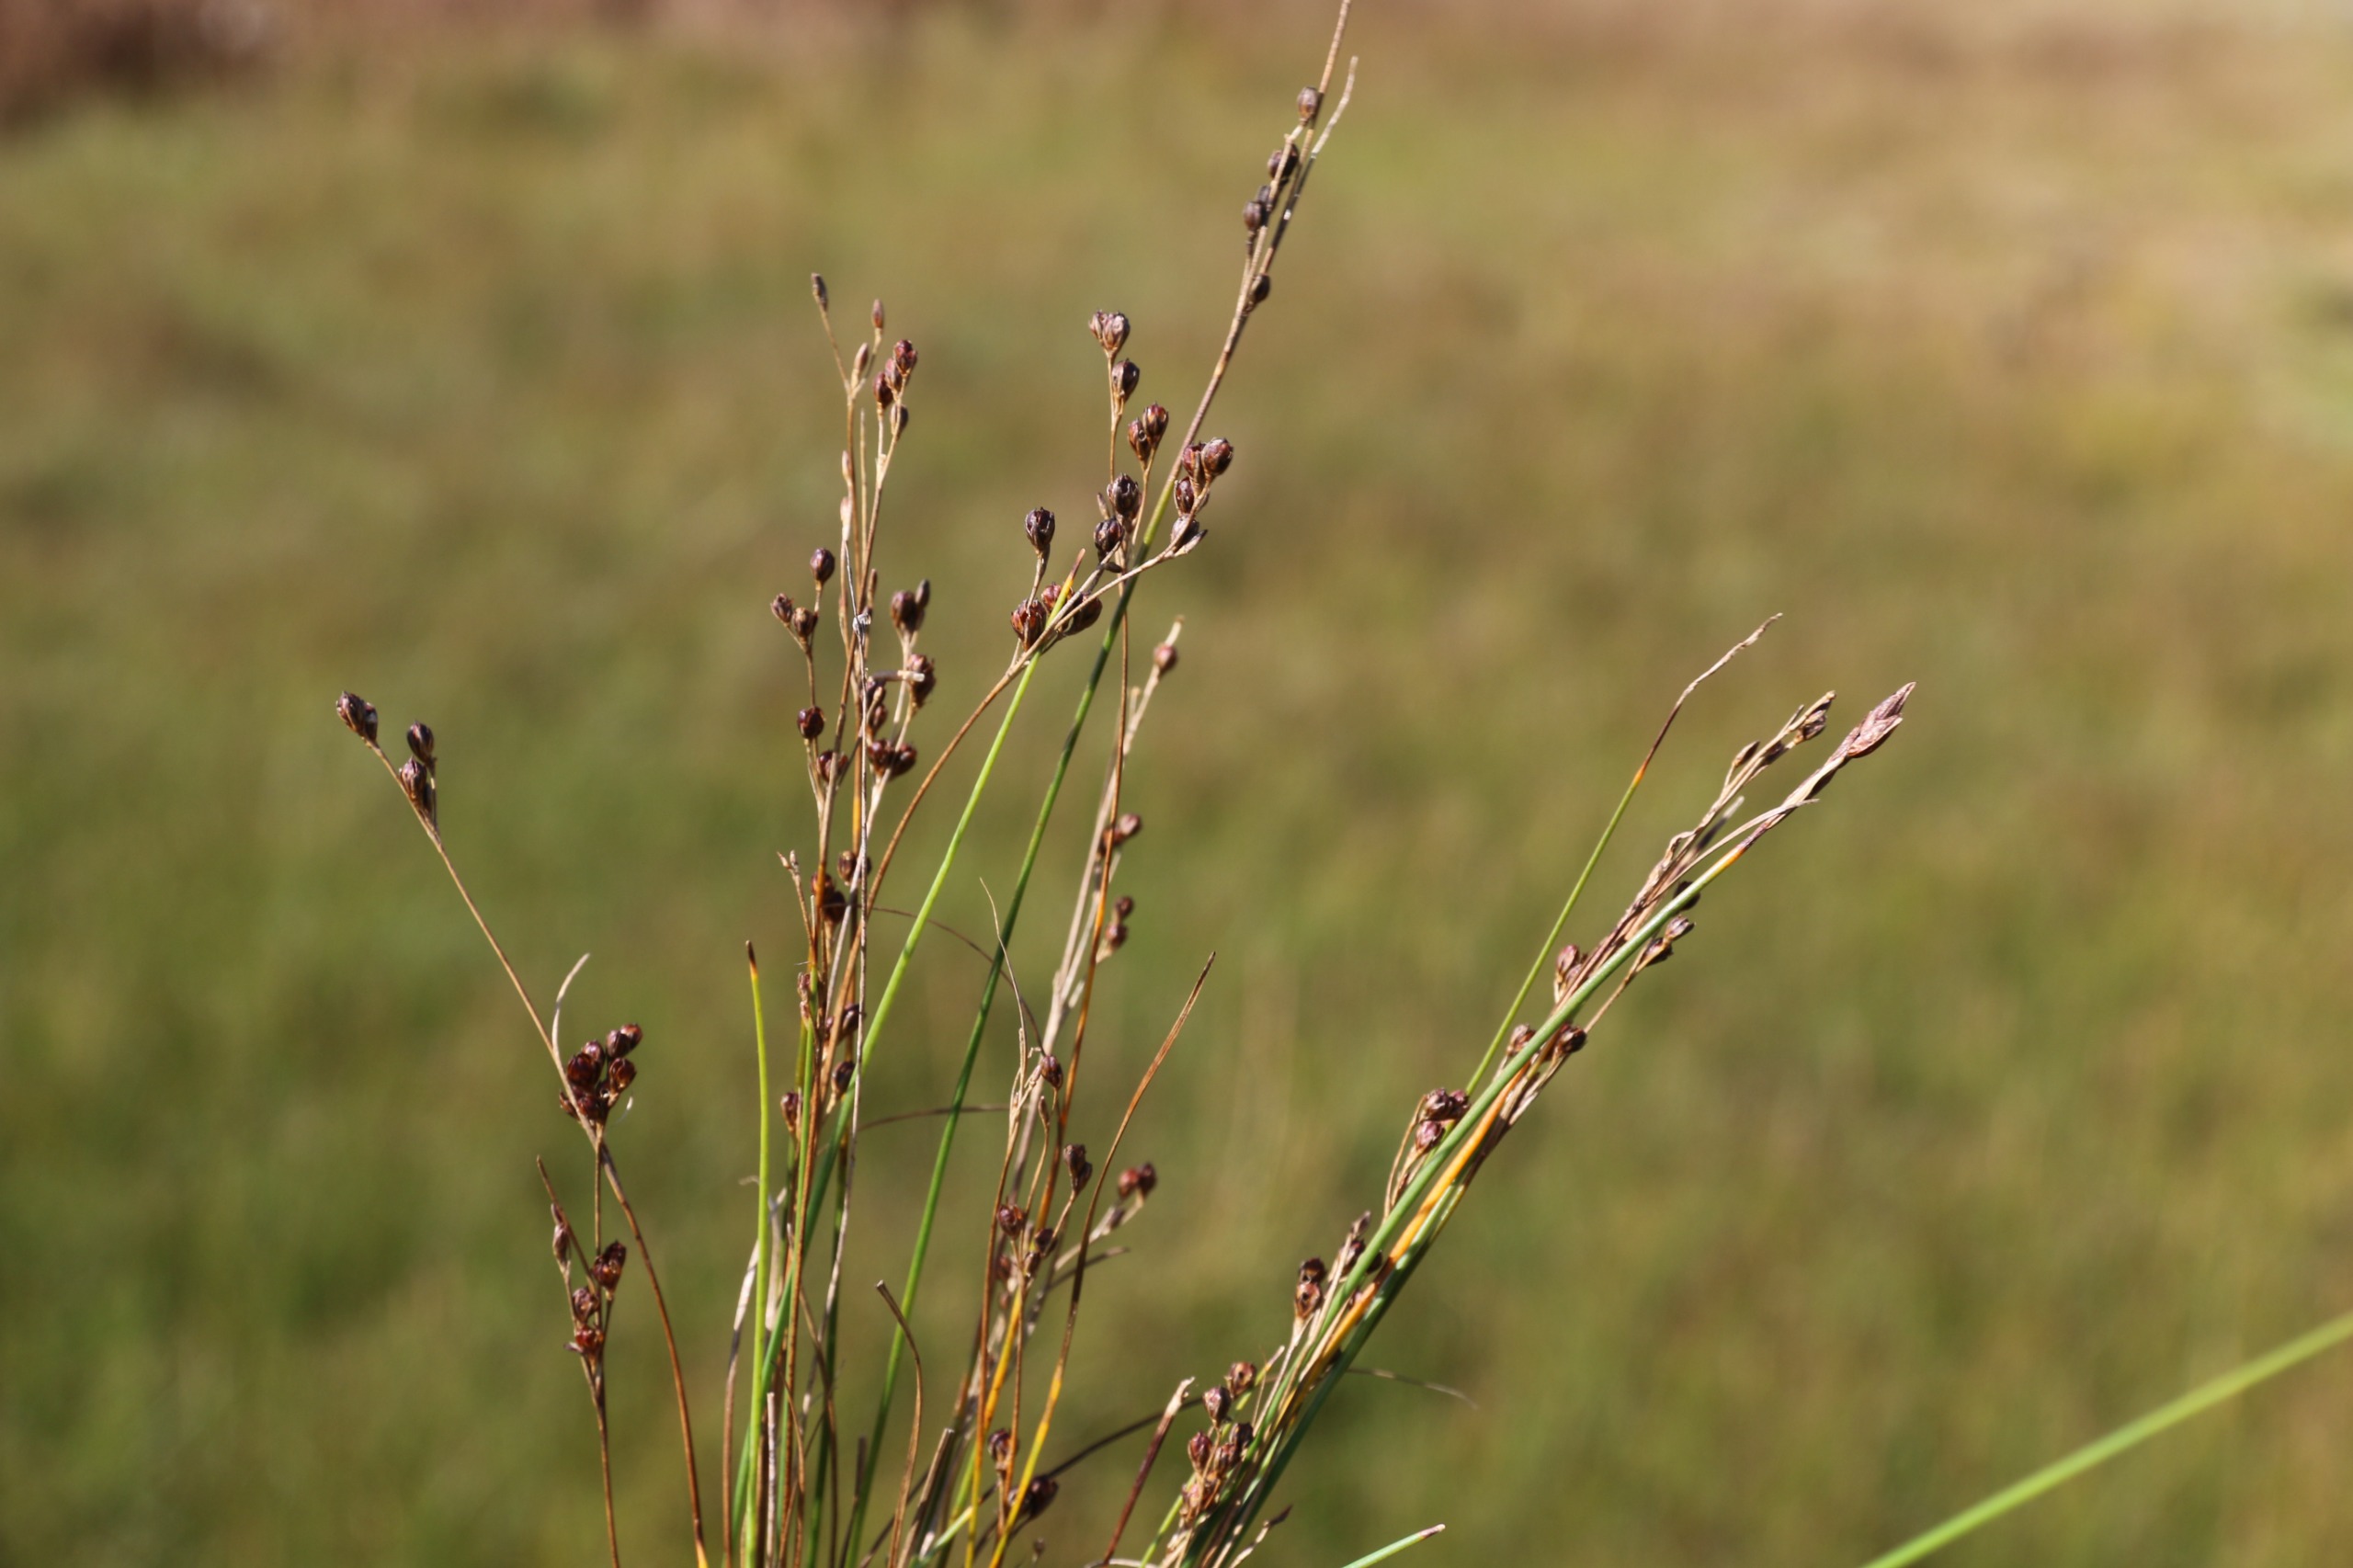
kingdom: Plantae
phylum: Tracheophyta
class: Liliopsida
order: Poales
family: Juncaceae
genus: Juncus
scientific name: Juncus gerardi
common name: Harril
